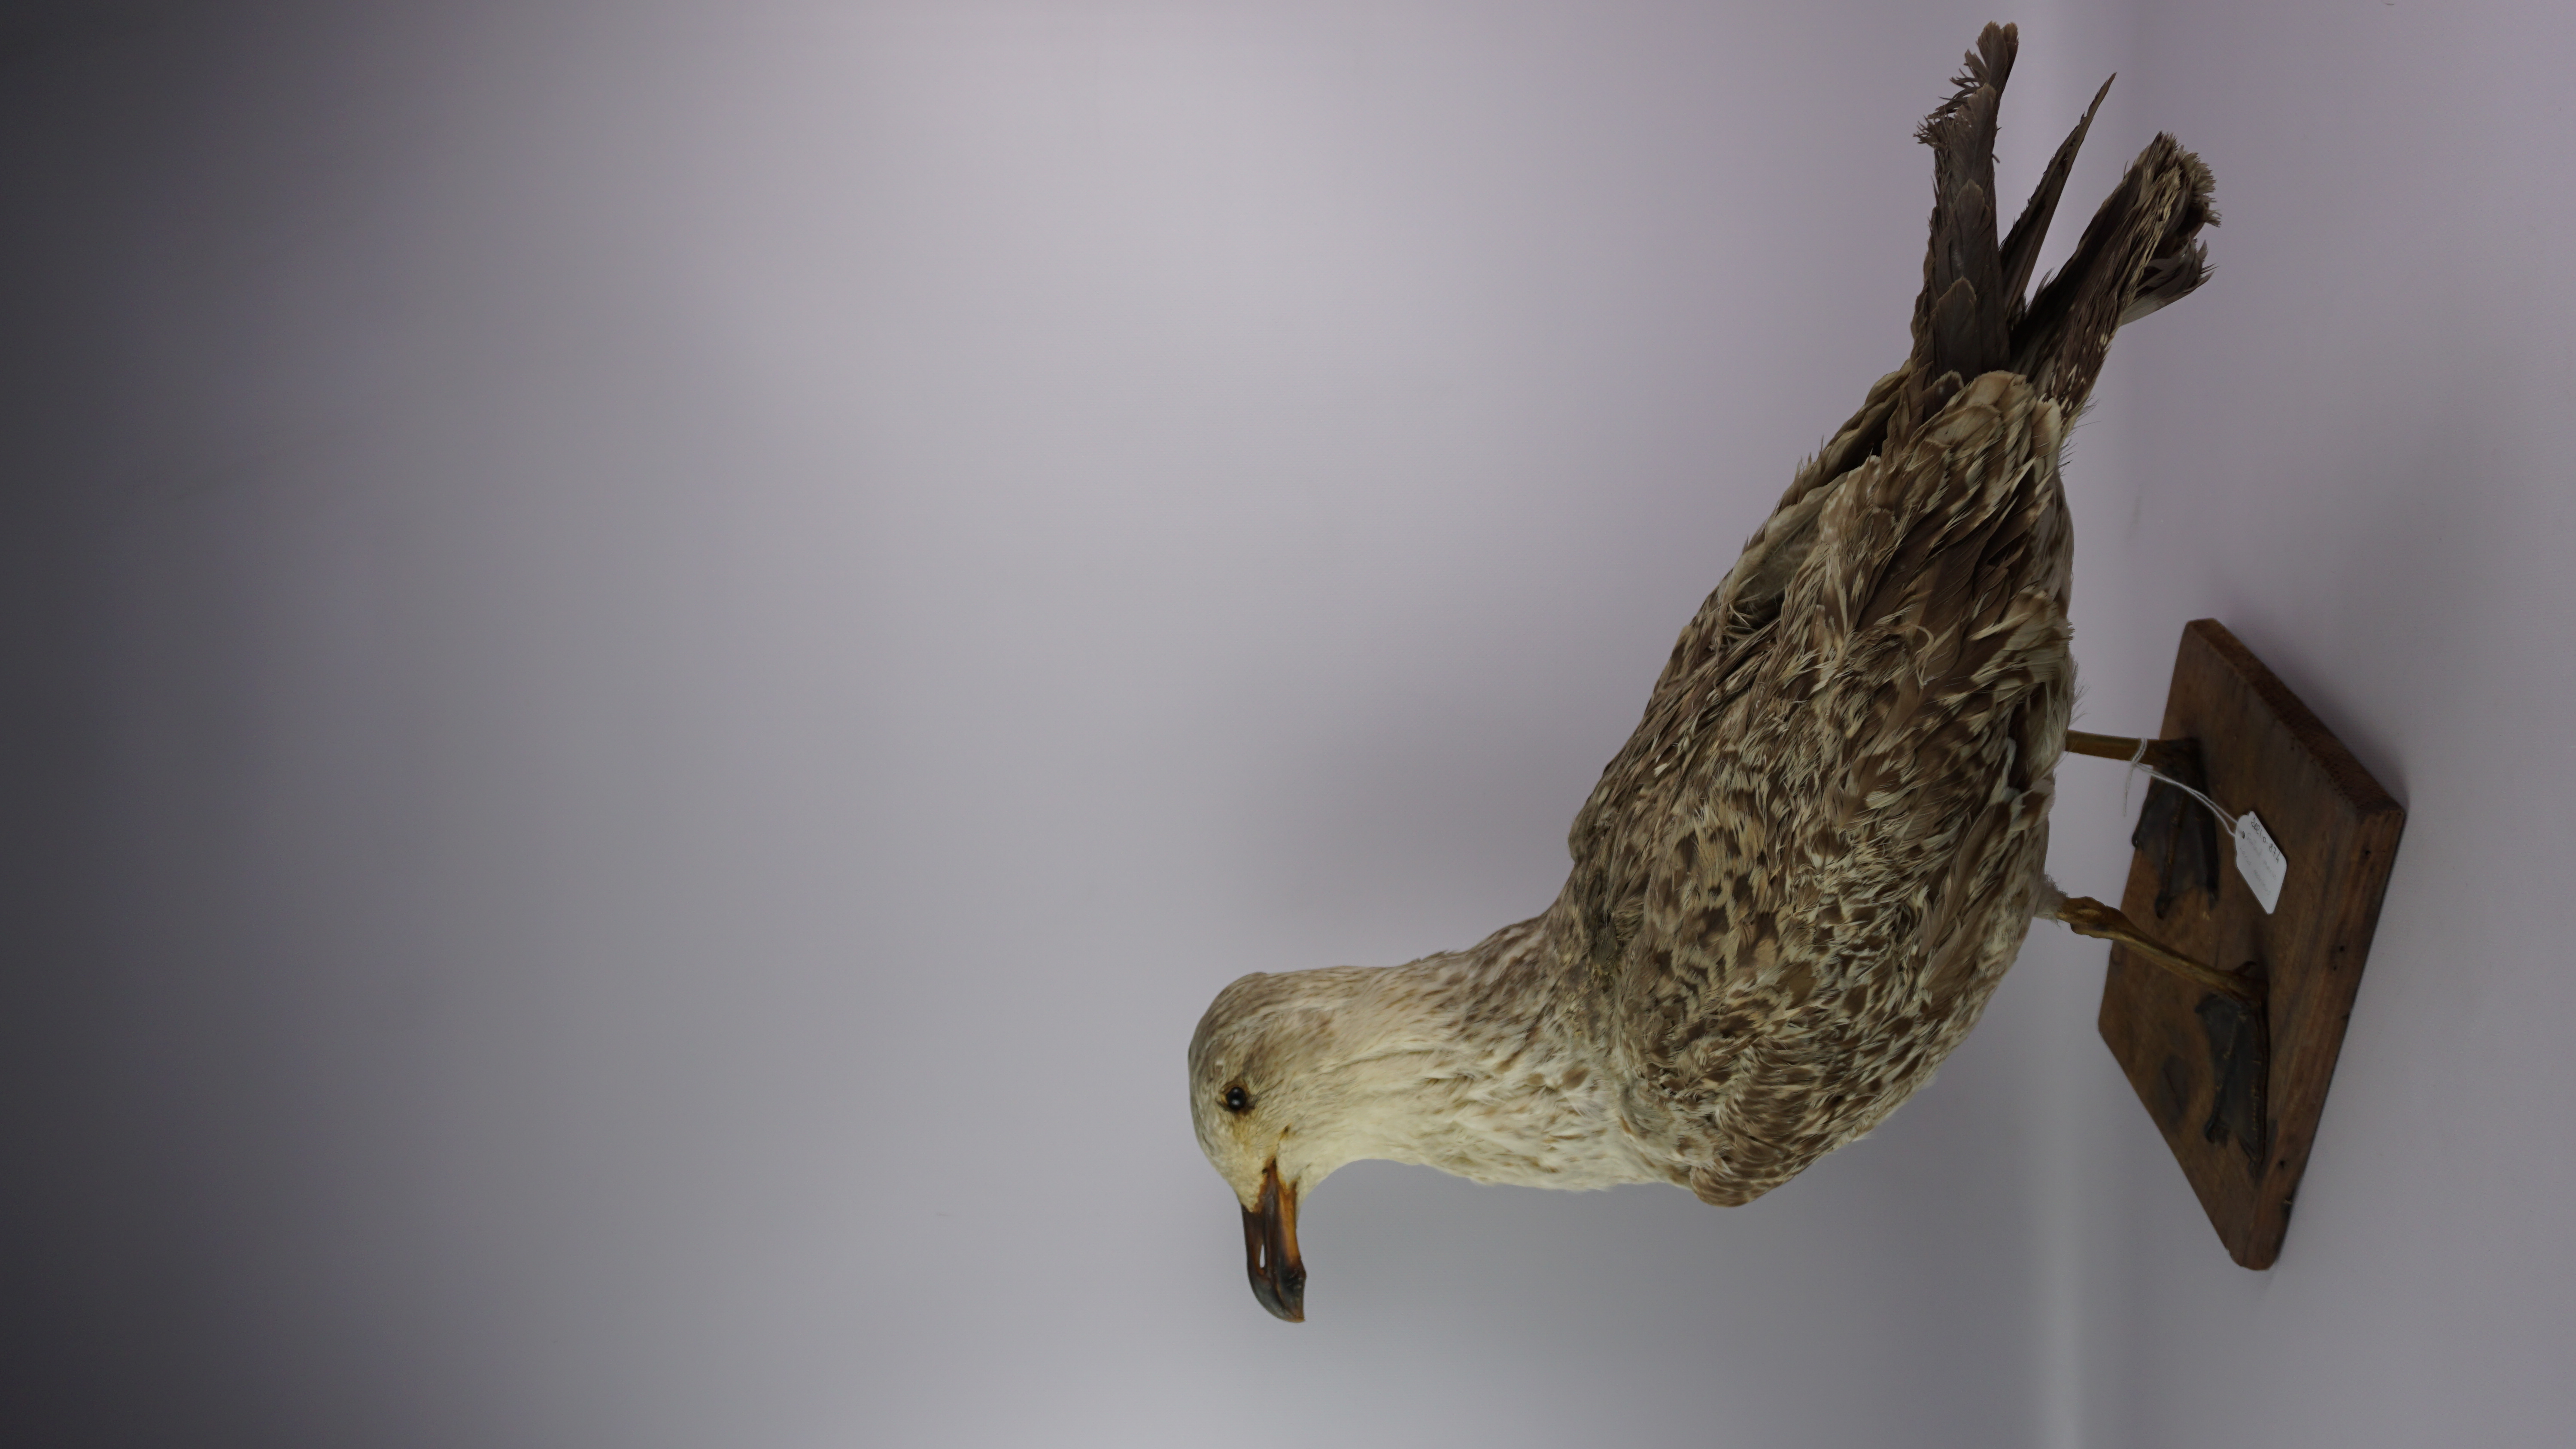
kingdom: Animalia
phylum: Chordata
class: Aves
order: Charadriiformes
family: Laridae
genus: Larus
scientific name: Larus marinus
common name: Great black-backed gull
